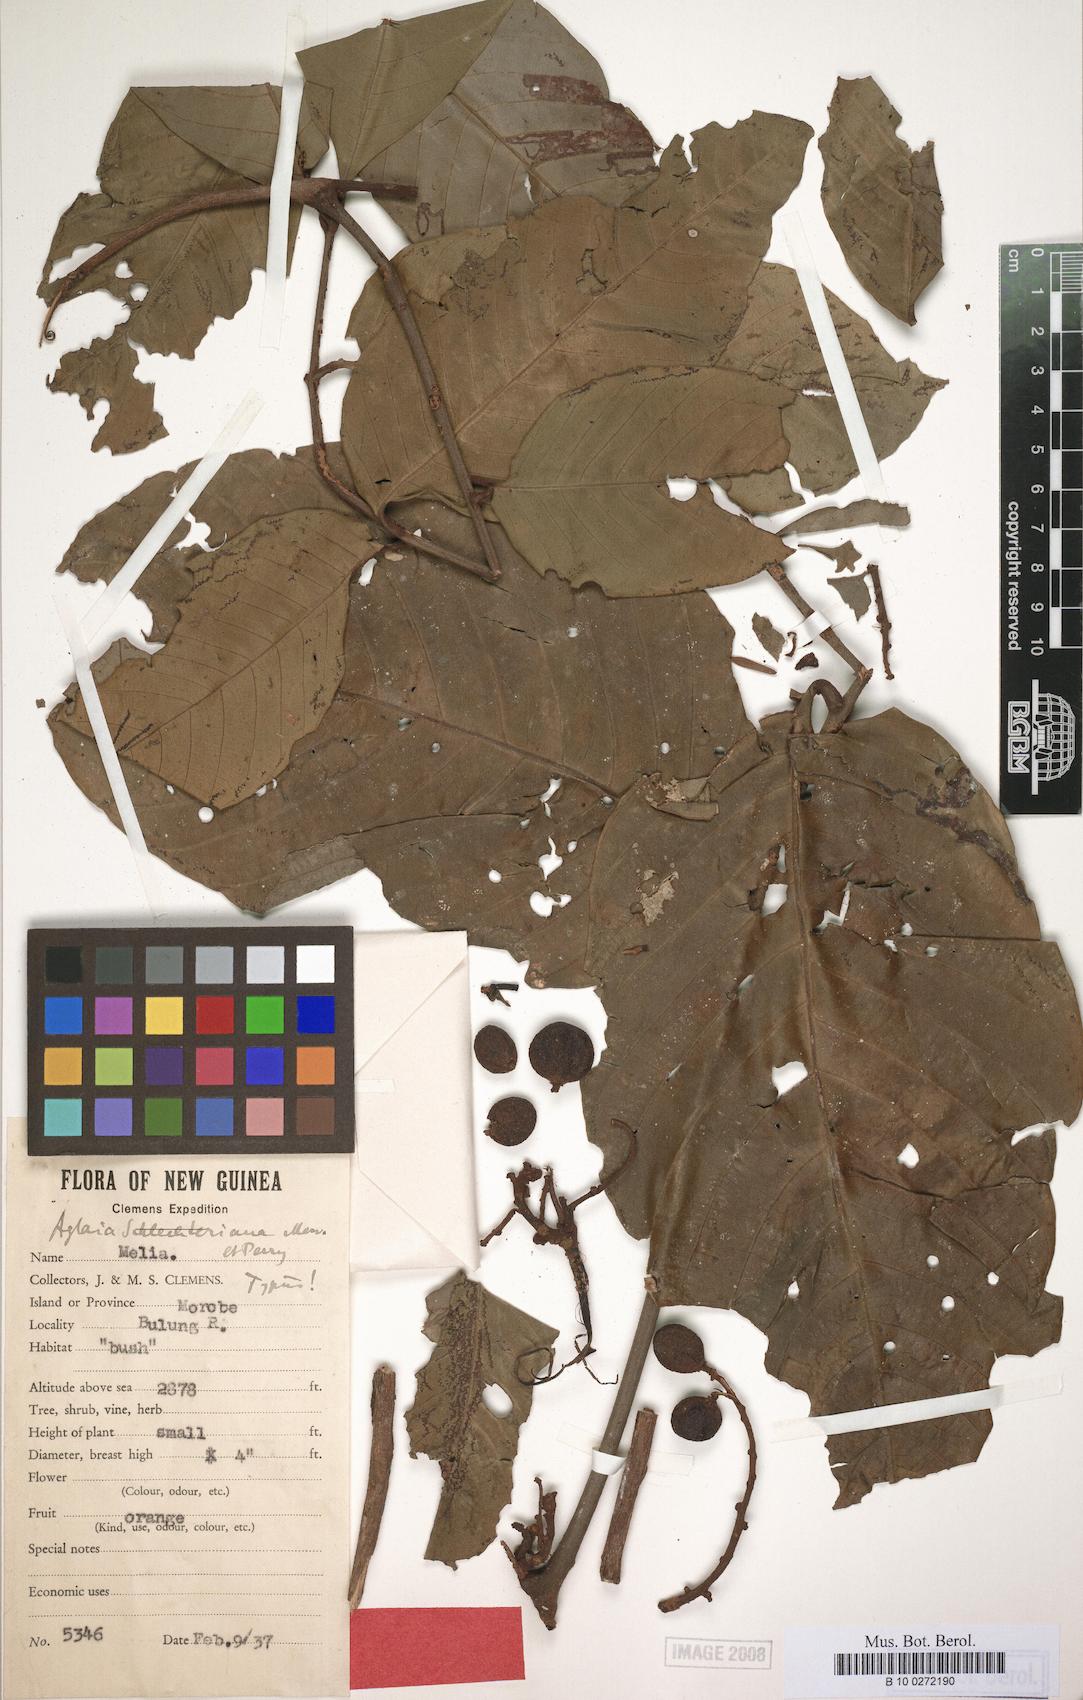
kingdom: Plantae
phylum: Tracheophyta
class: Magnoliopsida
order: Sapindales
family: Meliaceae
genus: Aglaia
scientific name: Aglaia polyneura
